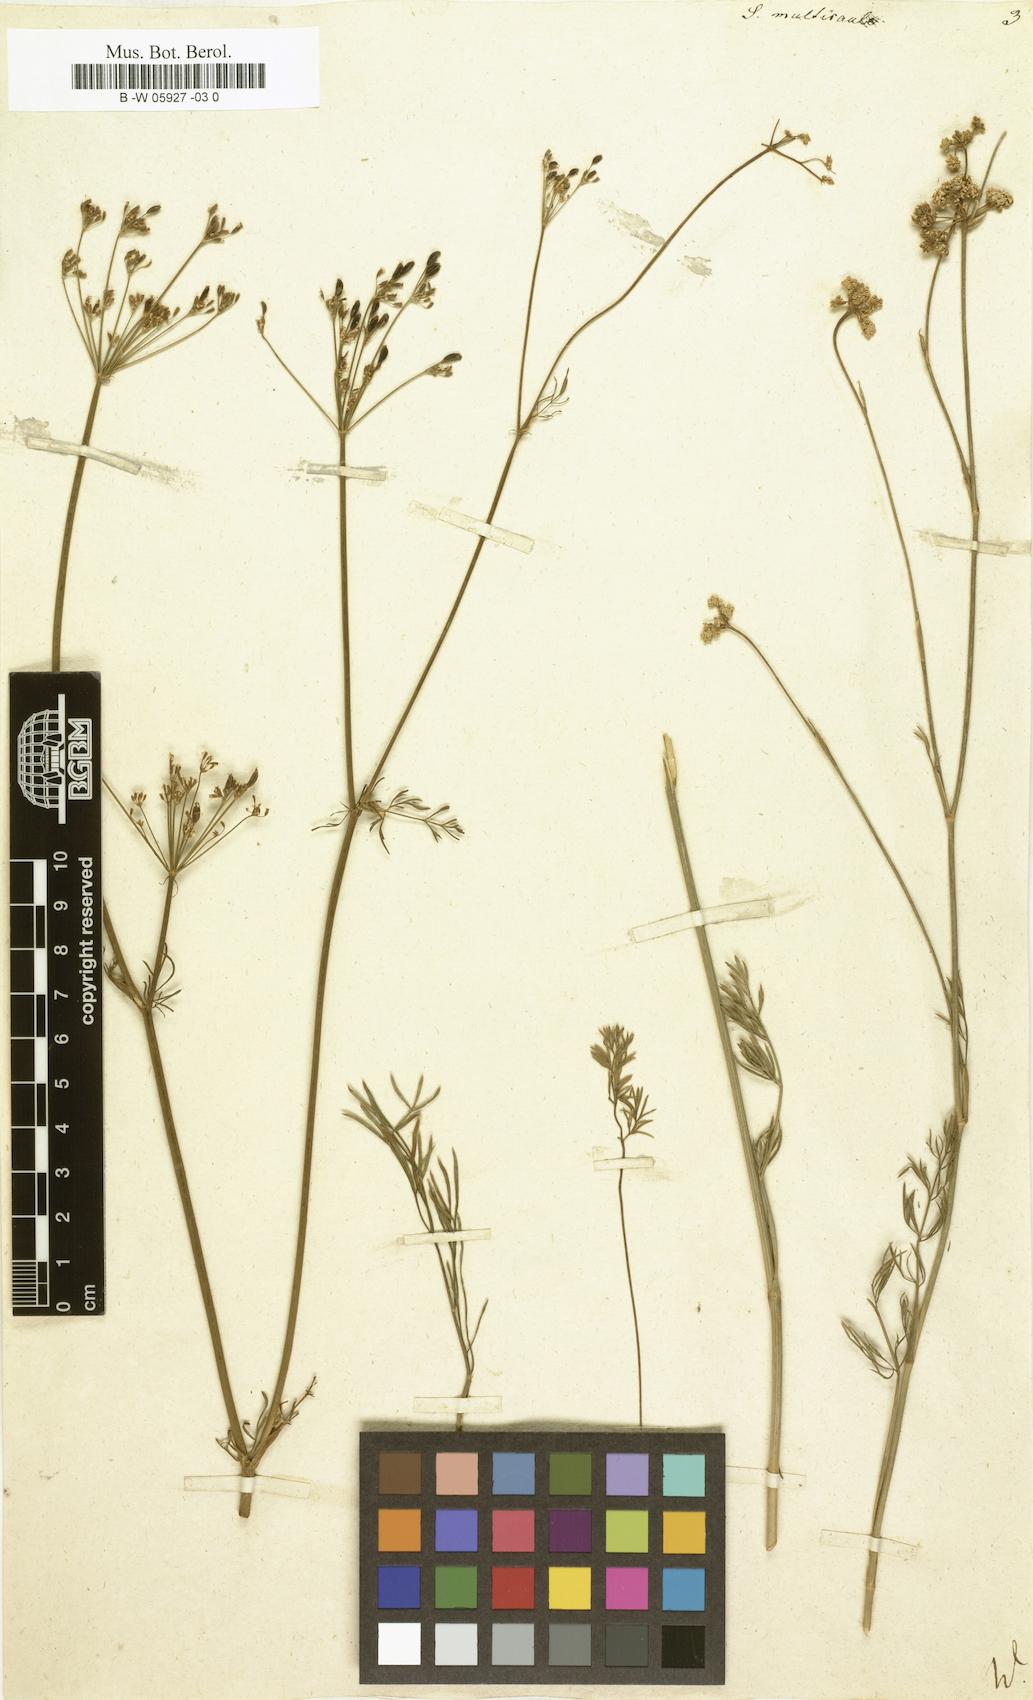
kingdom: Plantae
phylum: Tracheophyta
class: Magnoliopsida
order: Apiales
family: Apiaceae
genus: Seseli
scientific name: Seseli montanum
